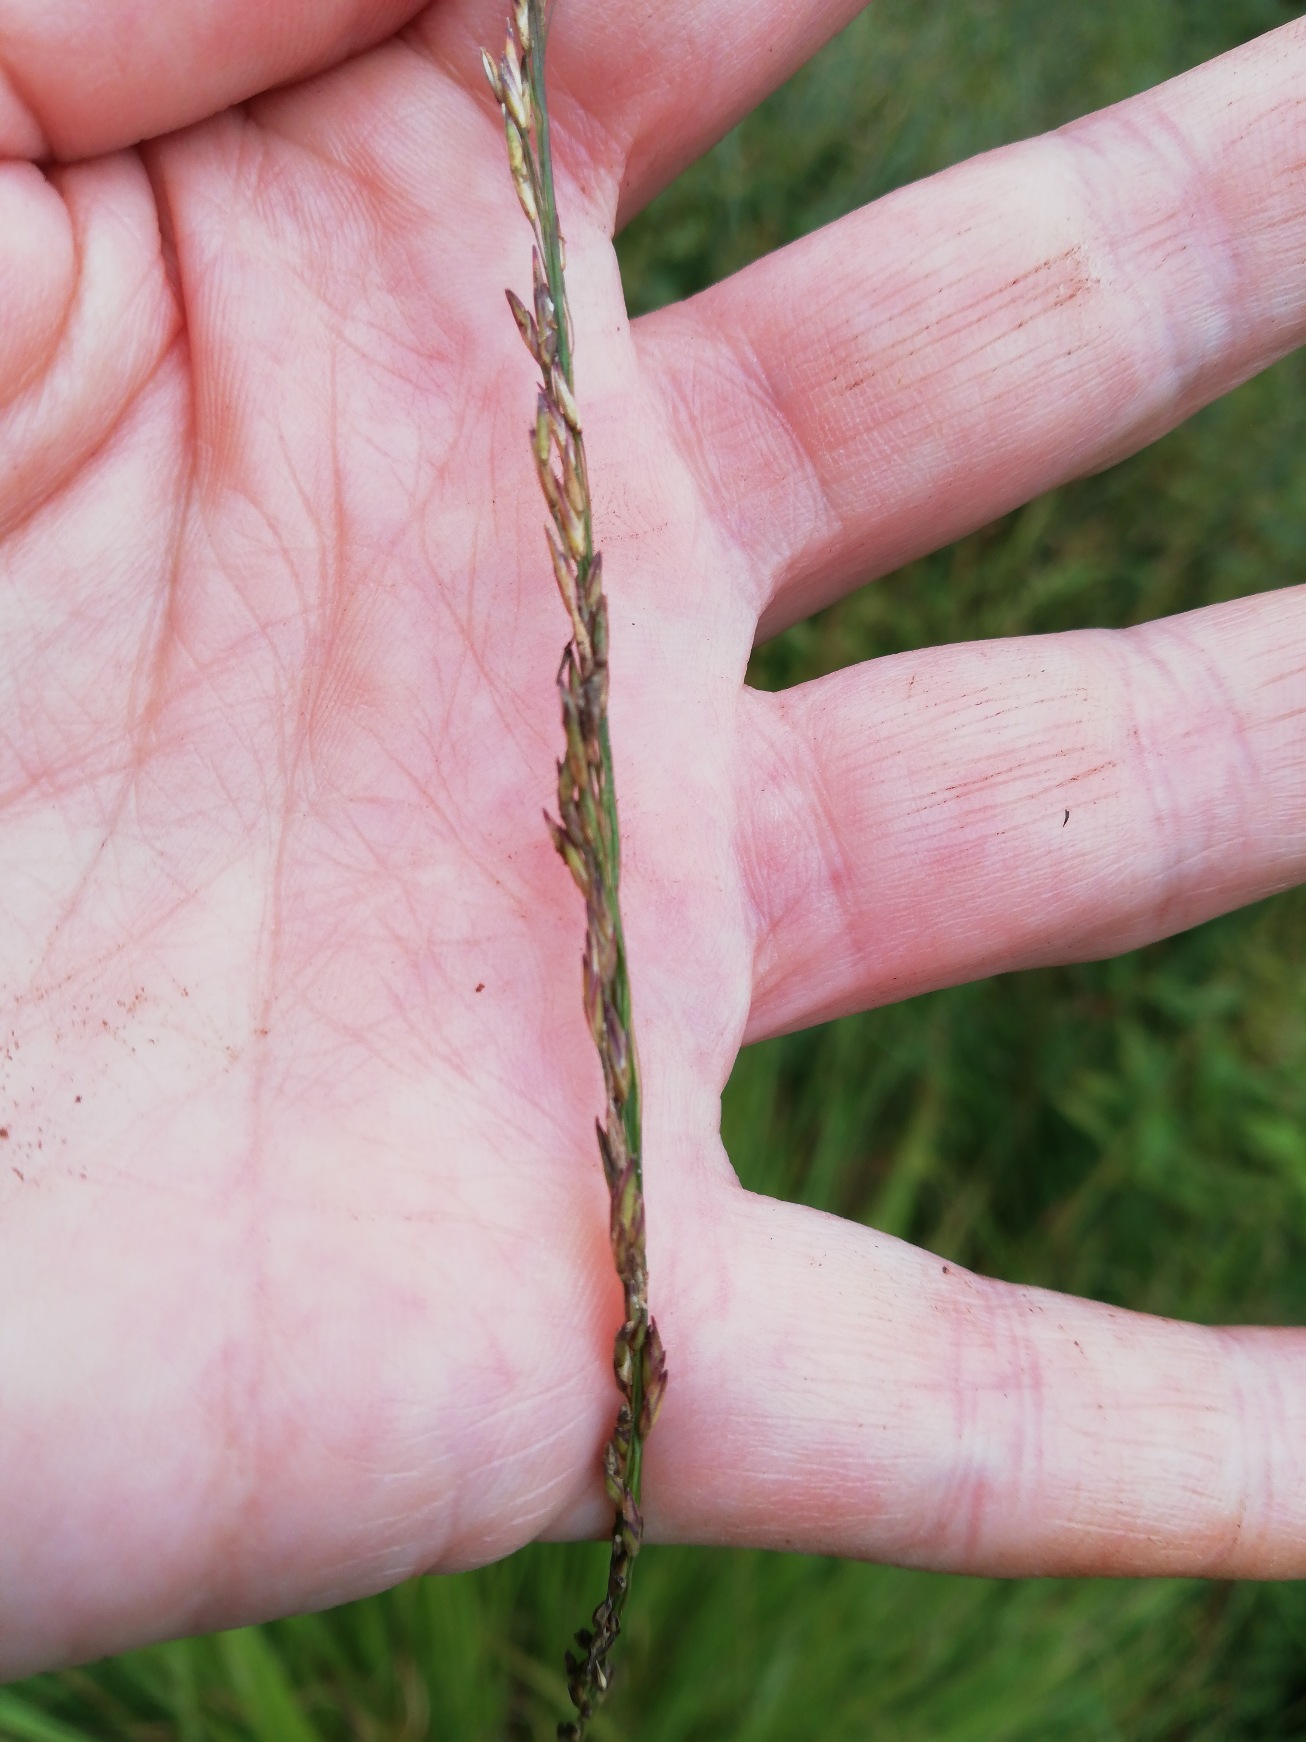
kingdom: Plantae
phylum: Tracheophyta
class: Liliopsida
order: Poales
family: Poaceae
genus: Molinia
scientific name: Molinia caerulea
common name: Blåtop
